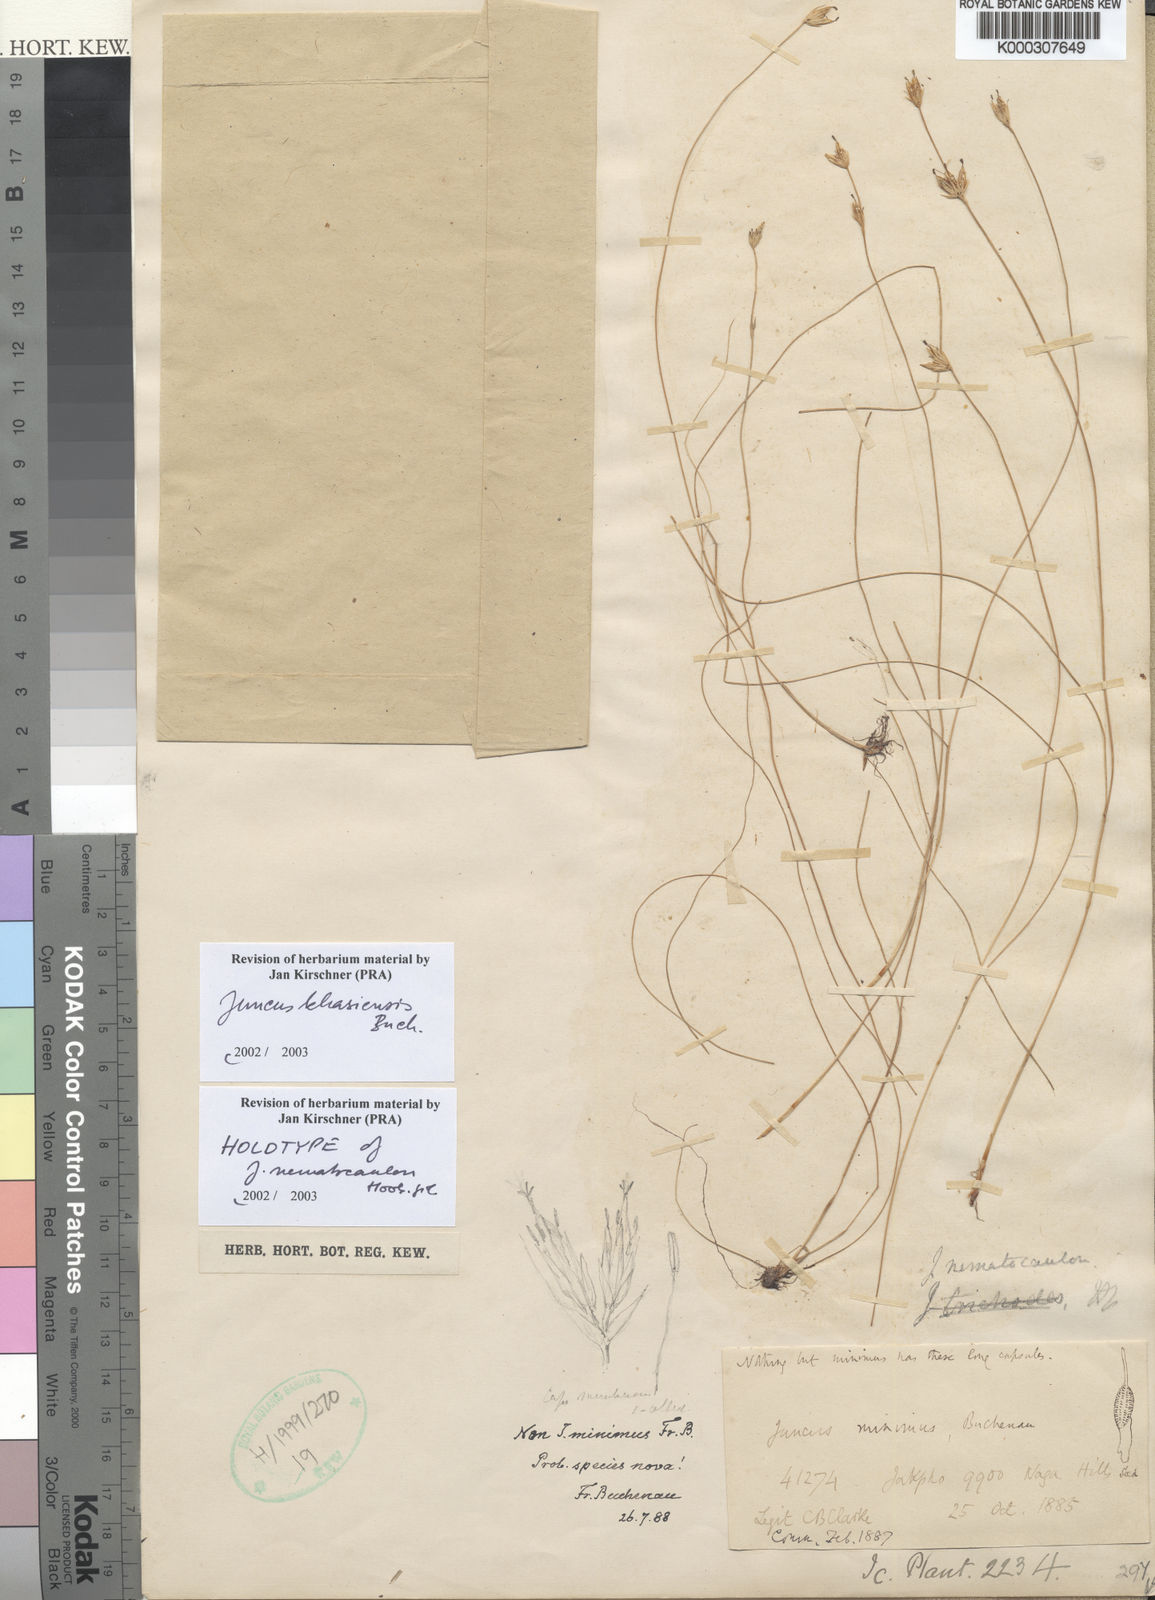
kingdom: Plantae
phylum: Tracheophyta
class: Liliopsida
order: Poales
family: Juncaceae
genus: Juncus
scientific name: Juncus
